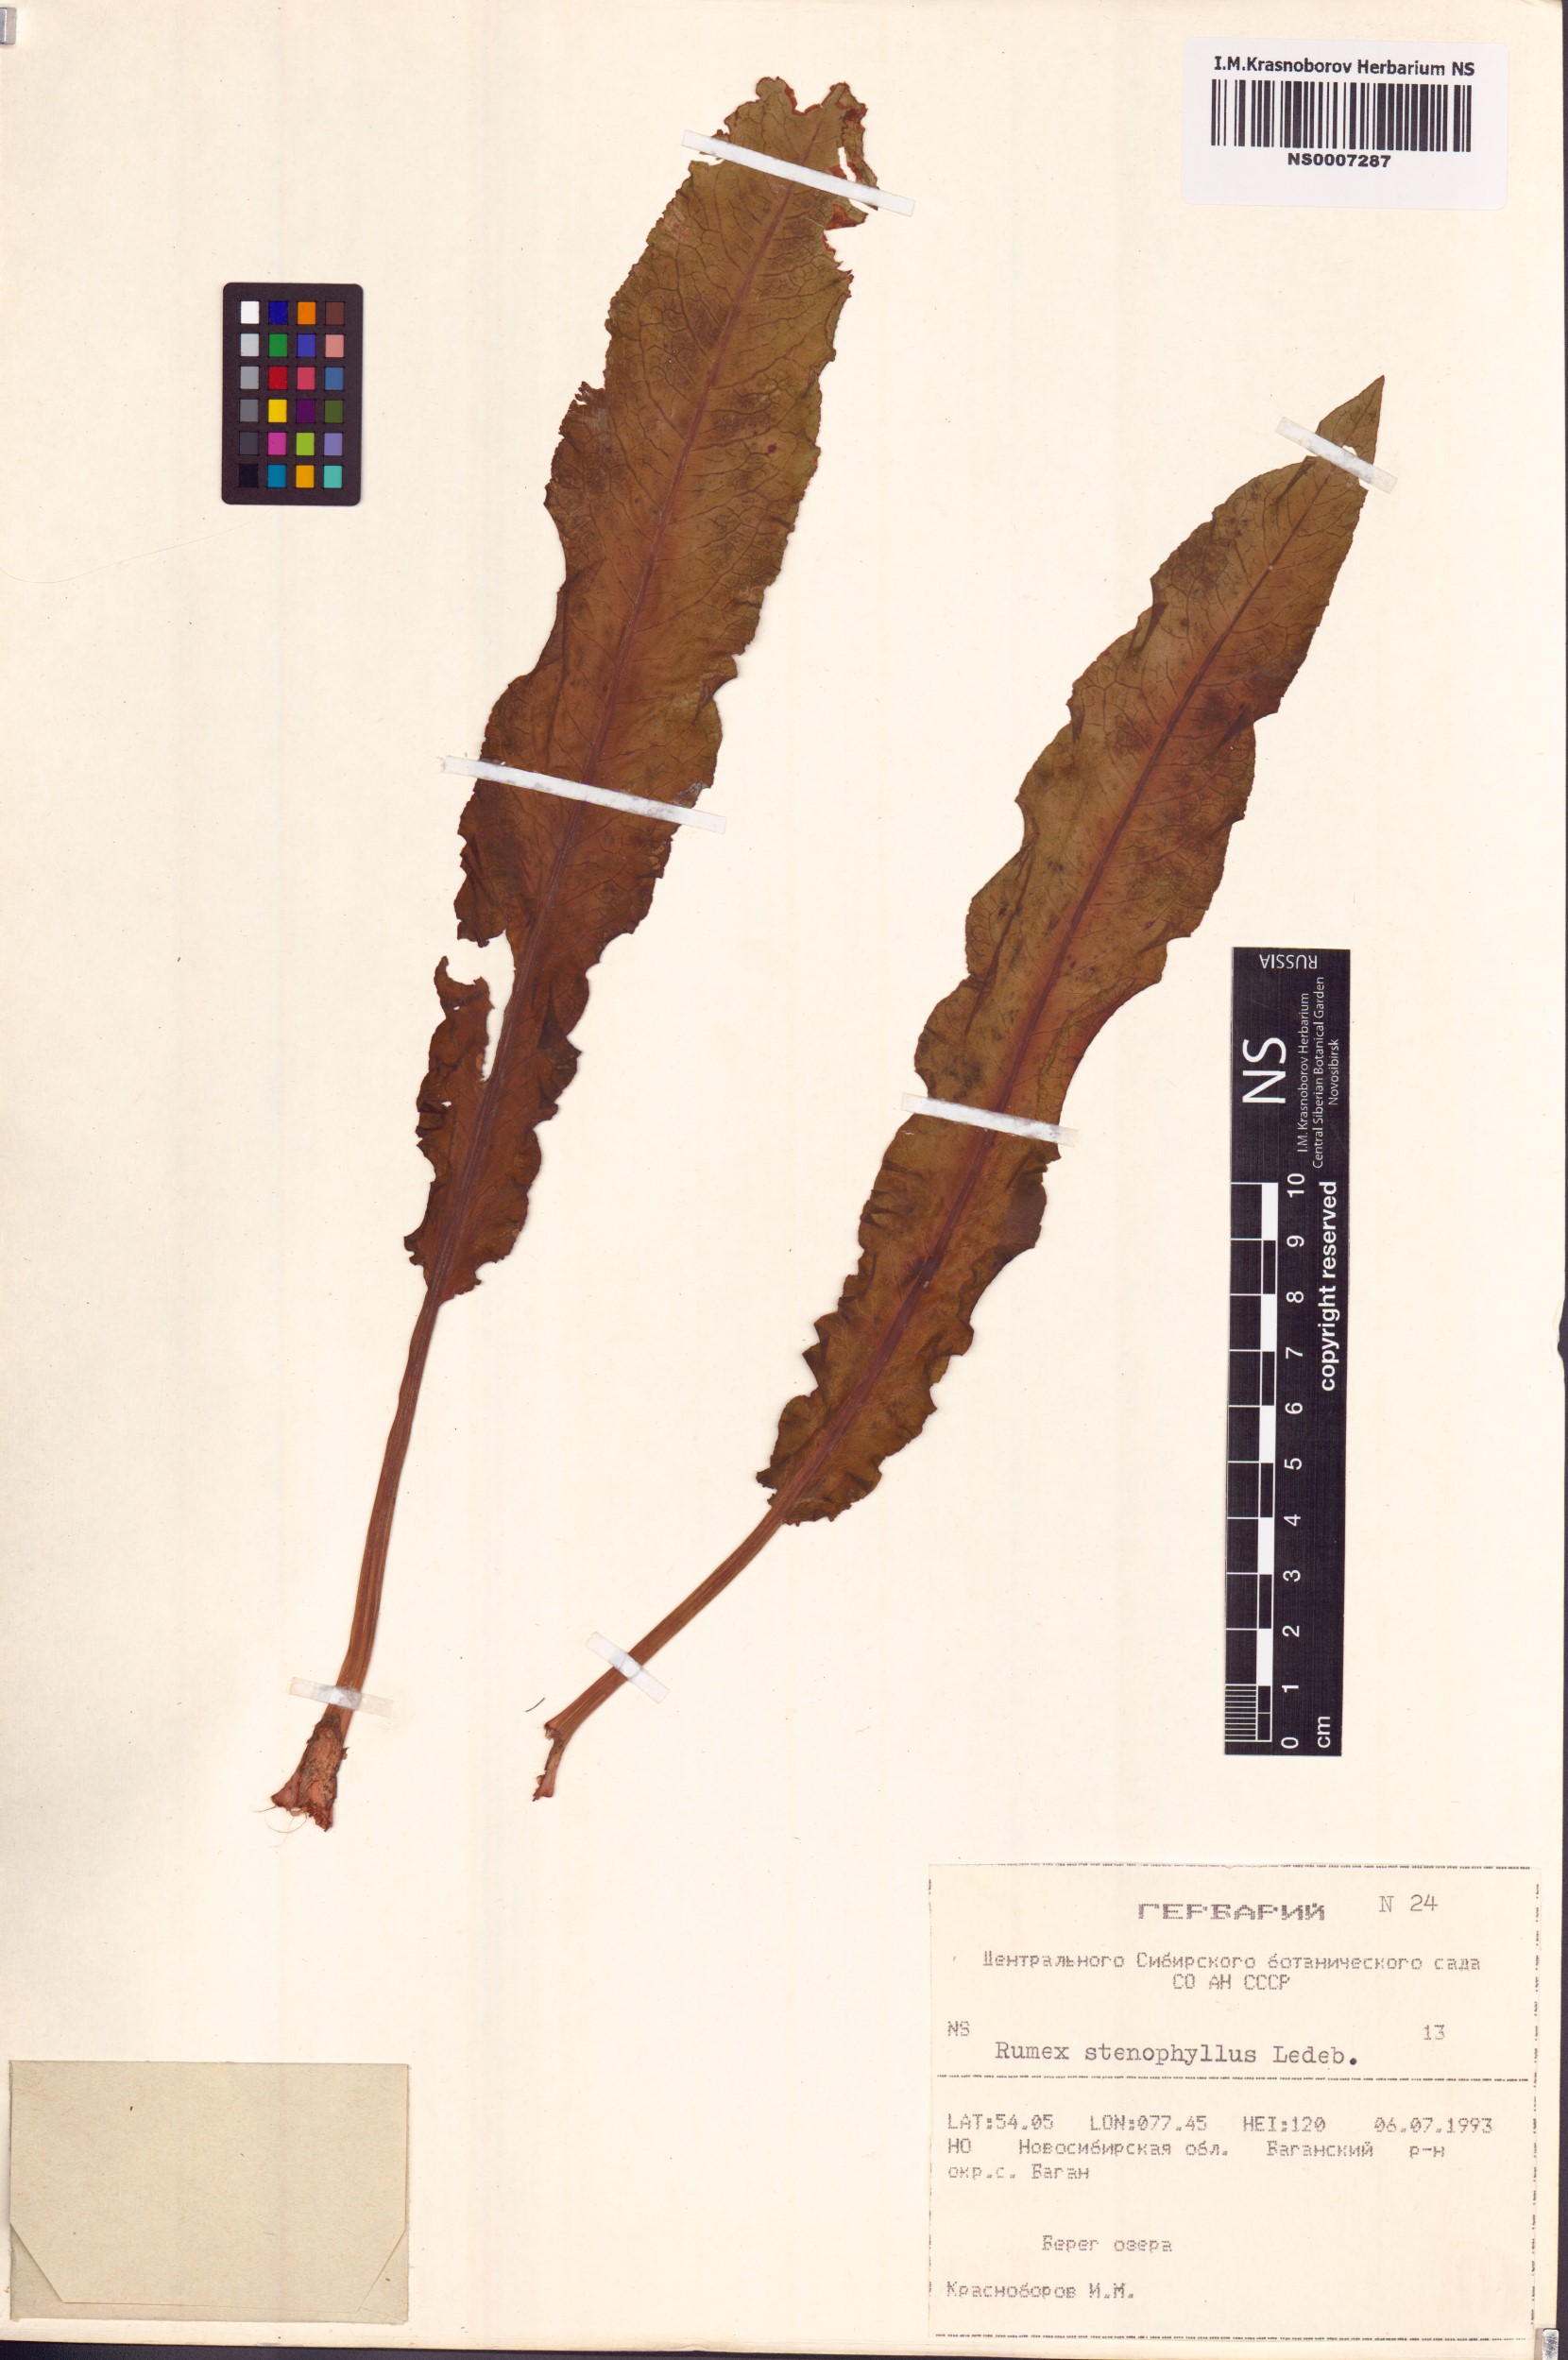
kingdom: Plantae
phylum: Tracheophyta
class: Magnoliopsida
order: Caryophyllales
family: Polygonaceae
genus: Rumex
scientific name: Rumex stenophyllus
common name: Narrowleaf dock
